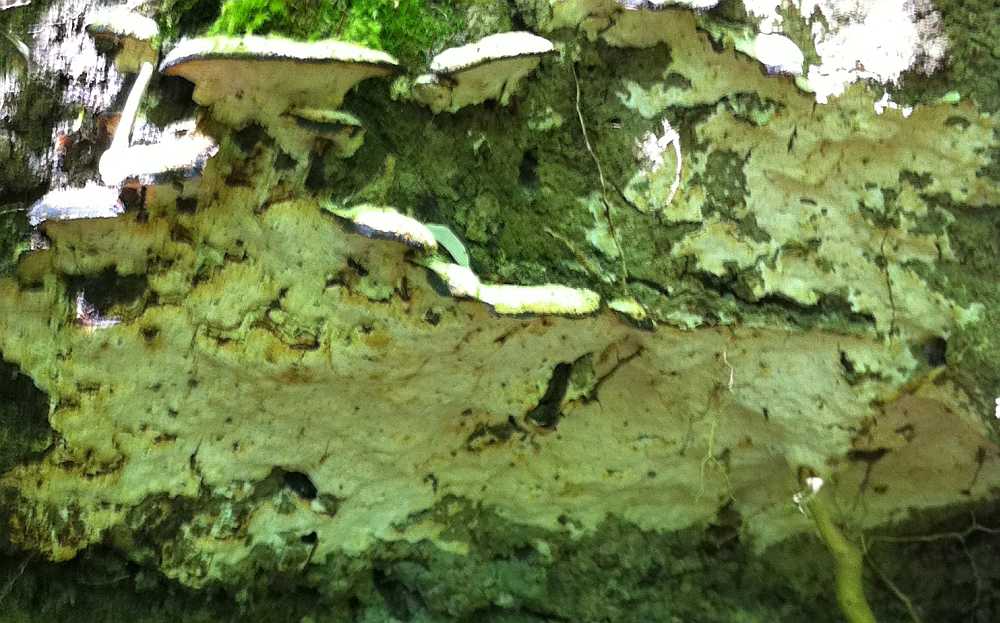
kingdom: Fungi
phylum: Basidiomycota
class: Agaricomycetes
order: Hymenochaetales
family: Oxyporaceae
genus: Oxyporus
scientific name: Oxyporus populinus
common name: sammenvokset trylleporesvamp
